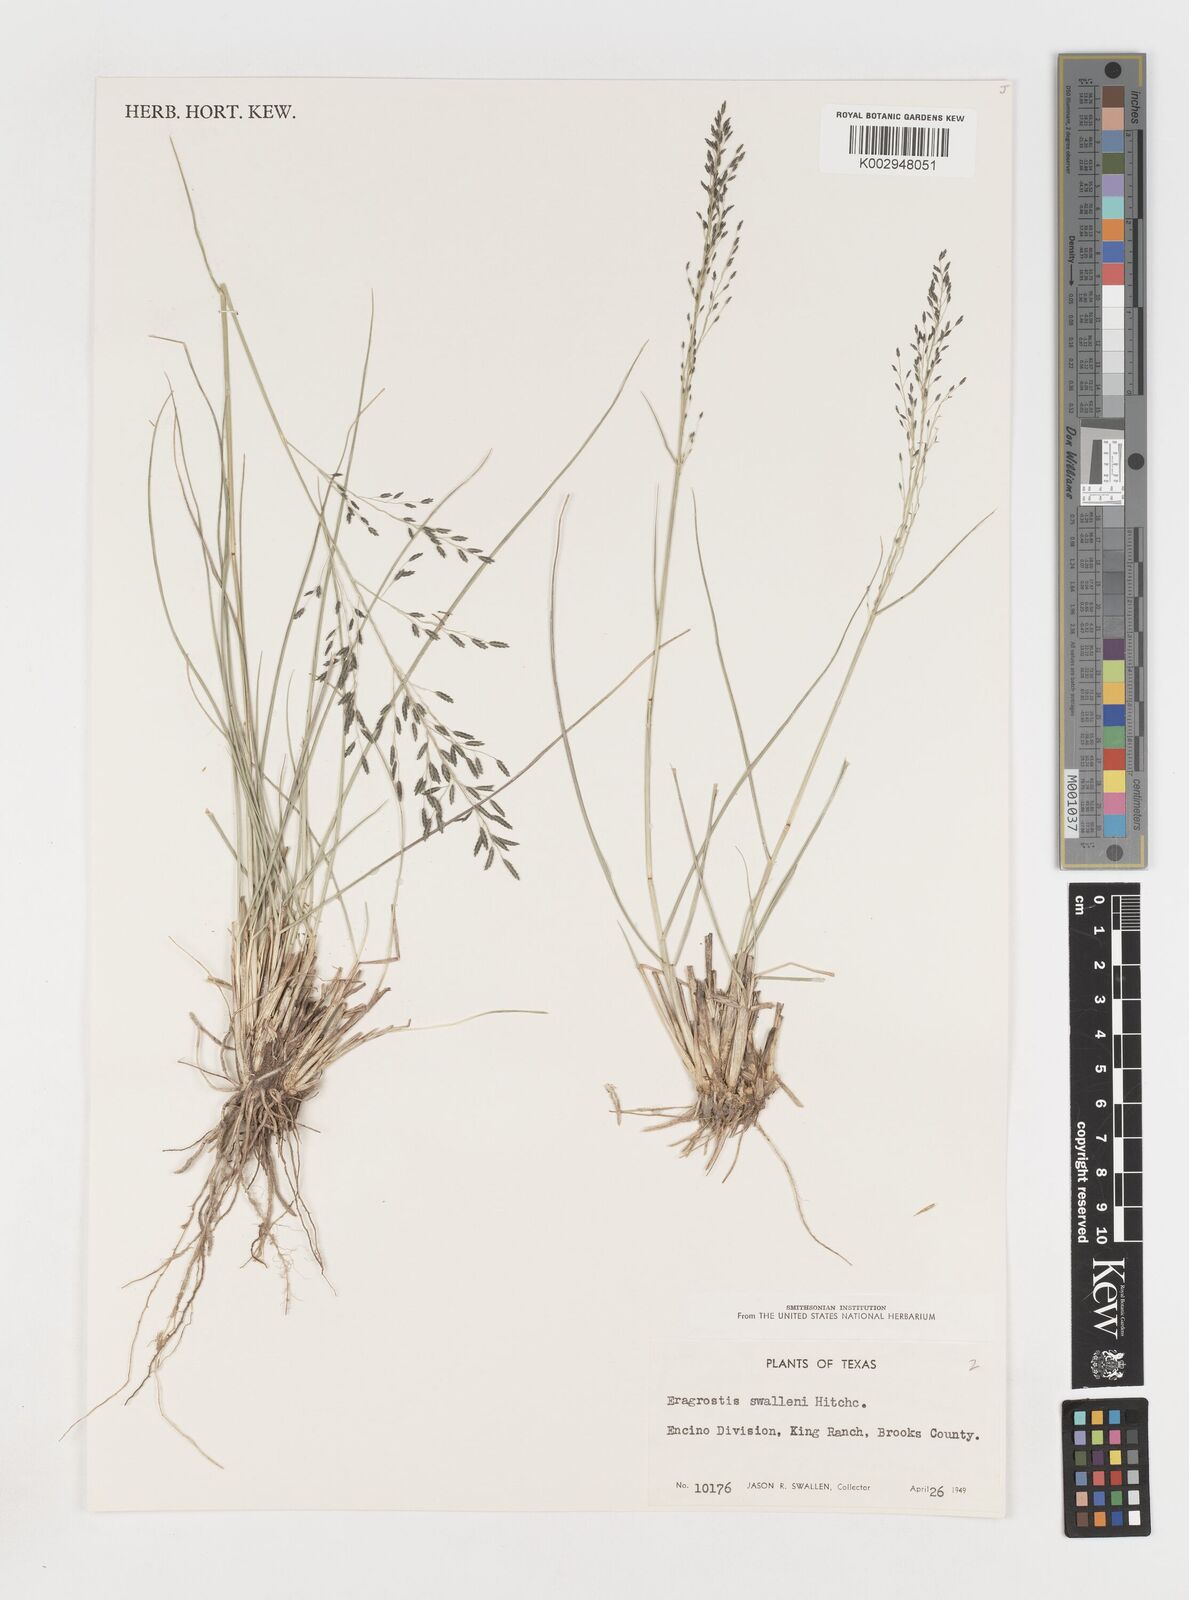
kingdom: Plantae
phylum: Tracheophyta
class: Liliopsida
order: Poales
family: Poaceae
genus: Eragrostis
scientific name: Eragrostis swallenii
